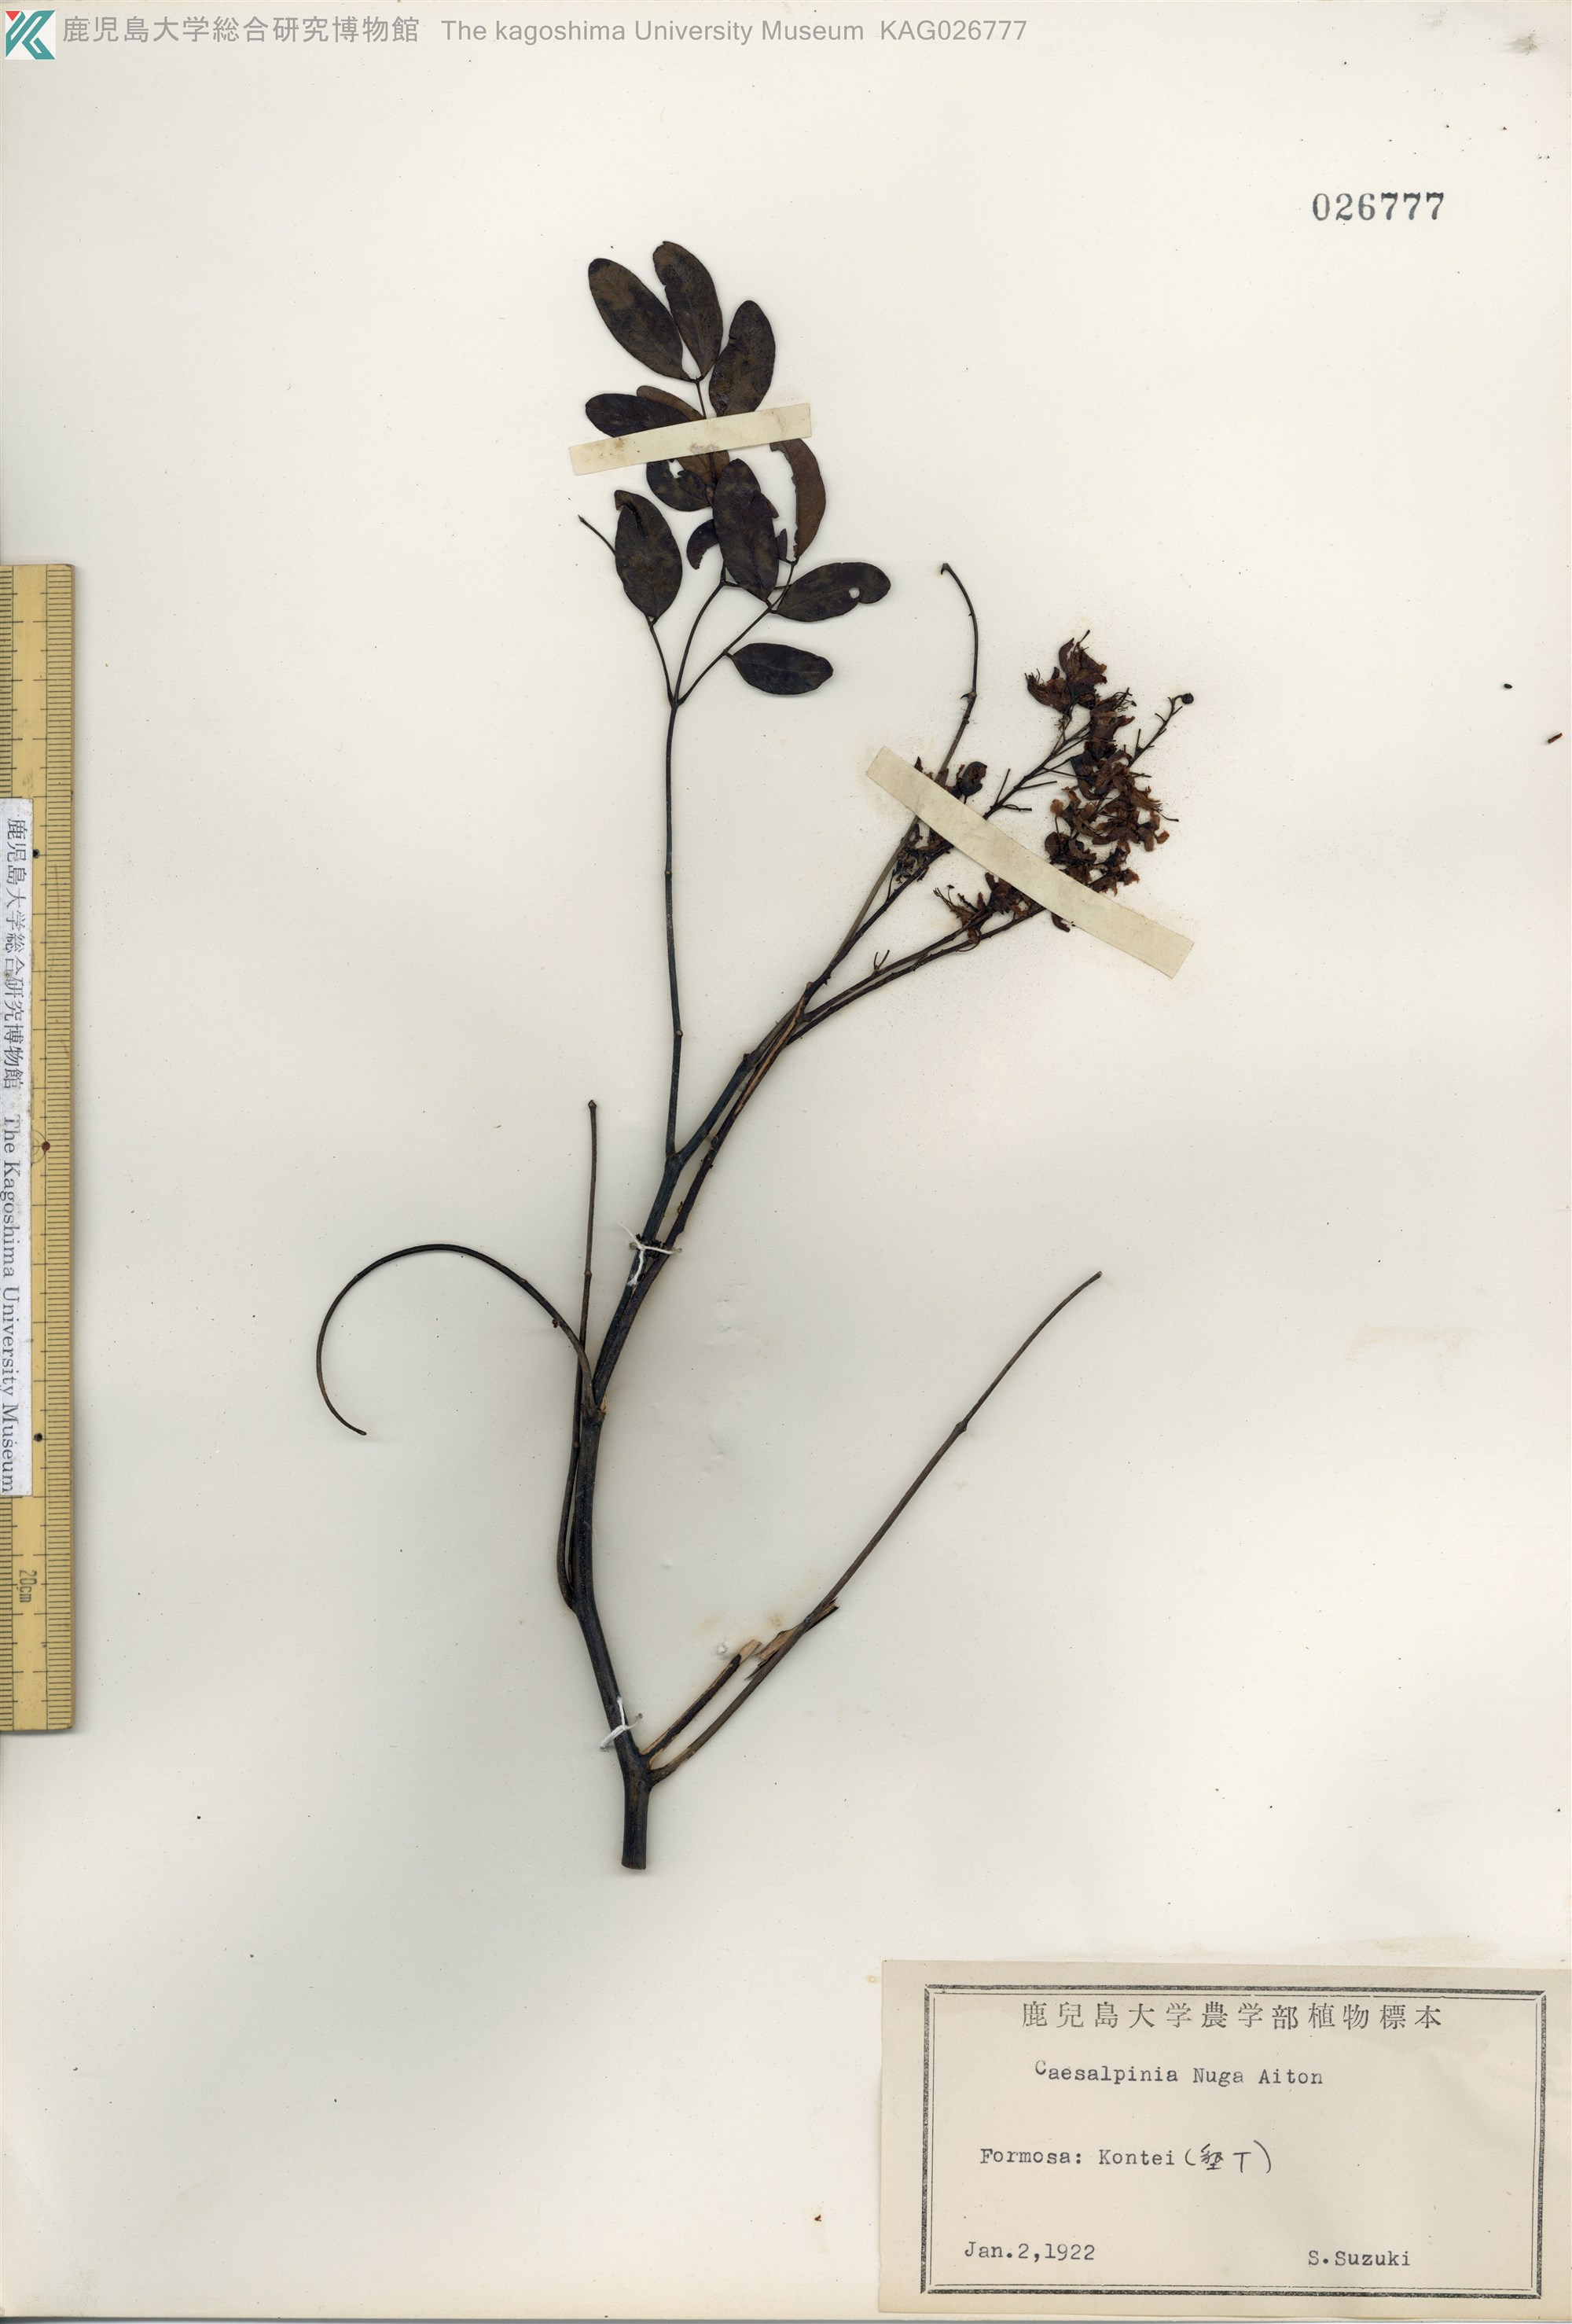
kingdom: Plantae
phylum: Tracheophyta
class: Magnoliopsida
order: Fabales
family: Fabaceae
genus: Caesalpinia
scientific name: Caesalpinia Ticanto crista
